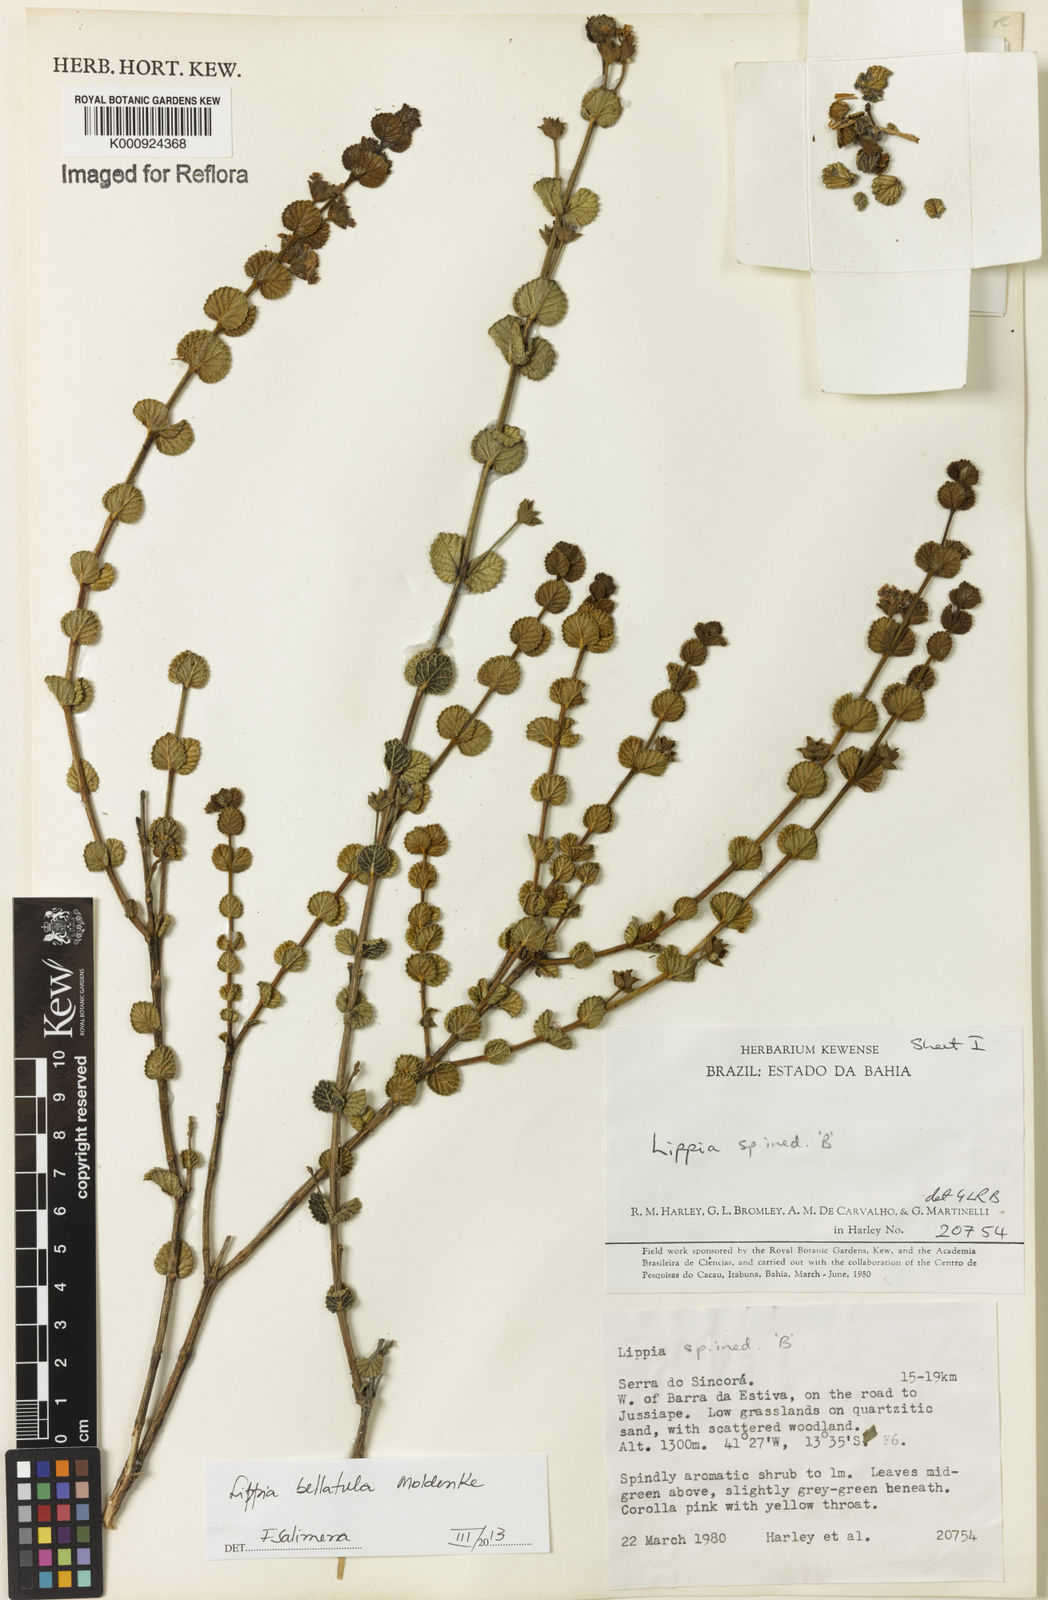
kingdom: Plantae
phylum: Tracheophyta
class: Magnoliopsida
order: Lamiales
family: Verbenaceae
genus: Lippia
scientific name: Lippia bellatula
